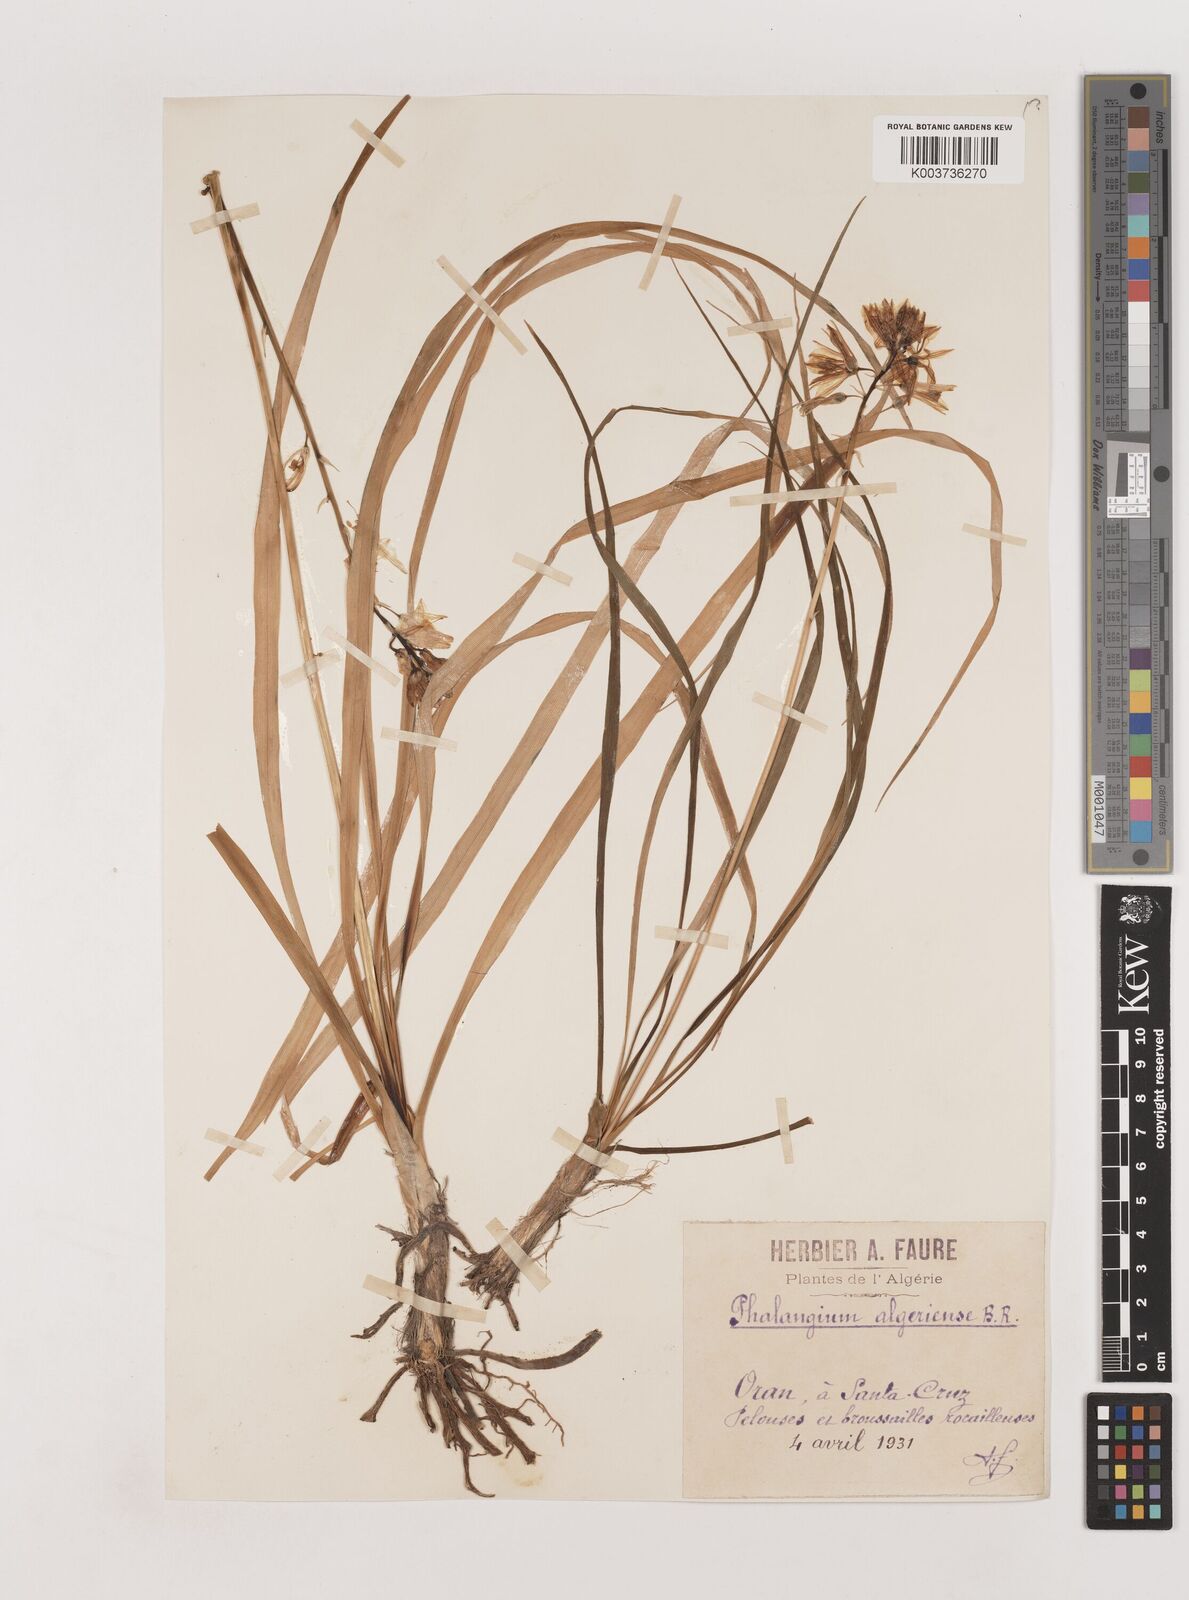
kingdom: Plantae
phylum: Tracheophyta
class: Liliopsida
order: Asparagales
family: Asparagaceae
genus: Anthericum
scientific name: Anthericum liliago
